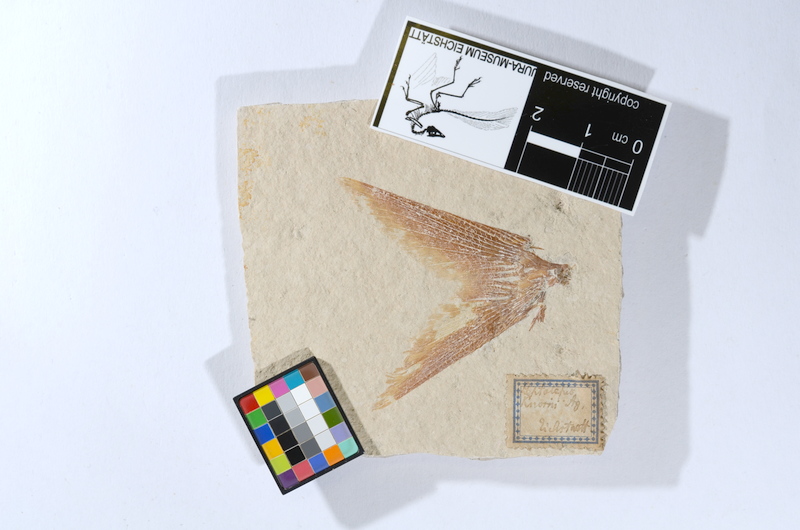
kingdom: Animalia
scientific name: Animalia
